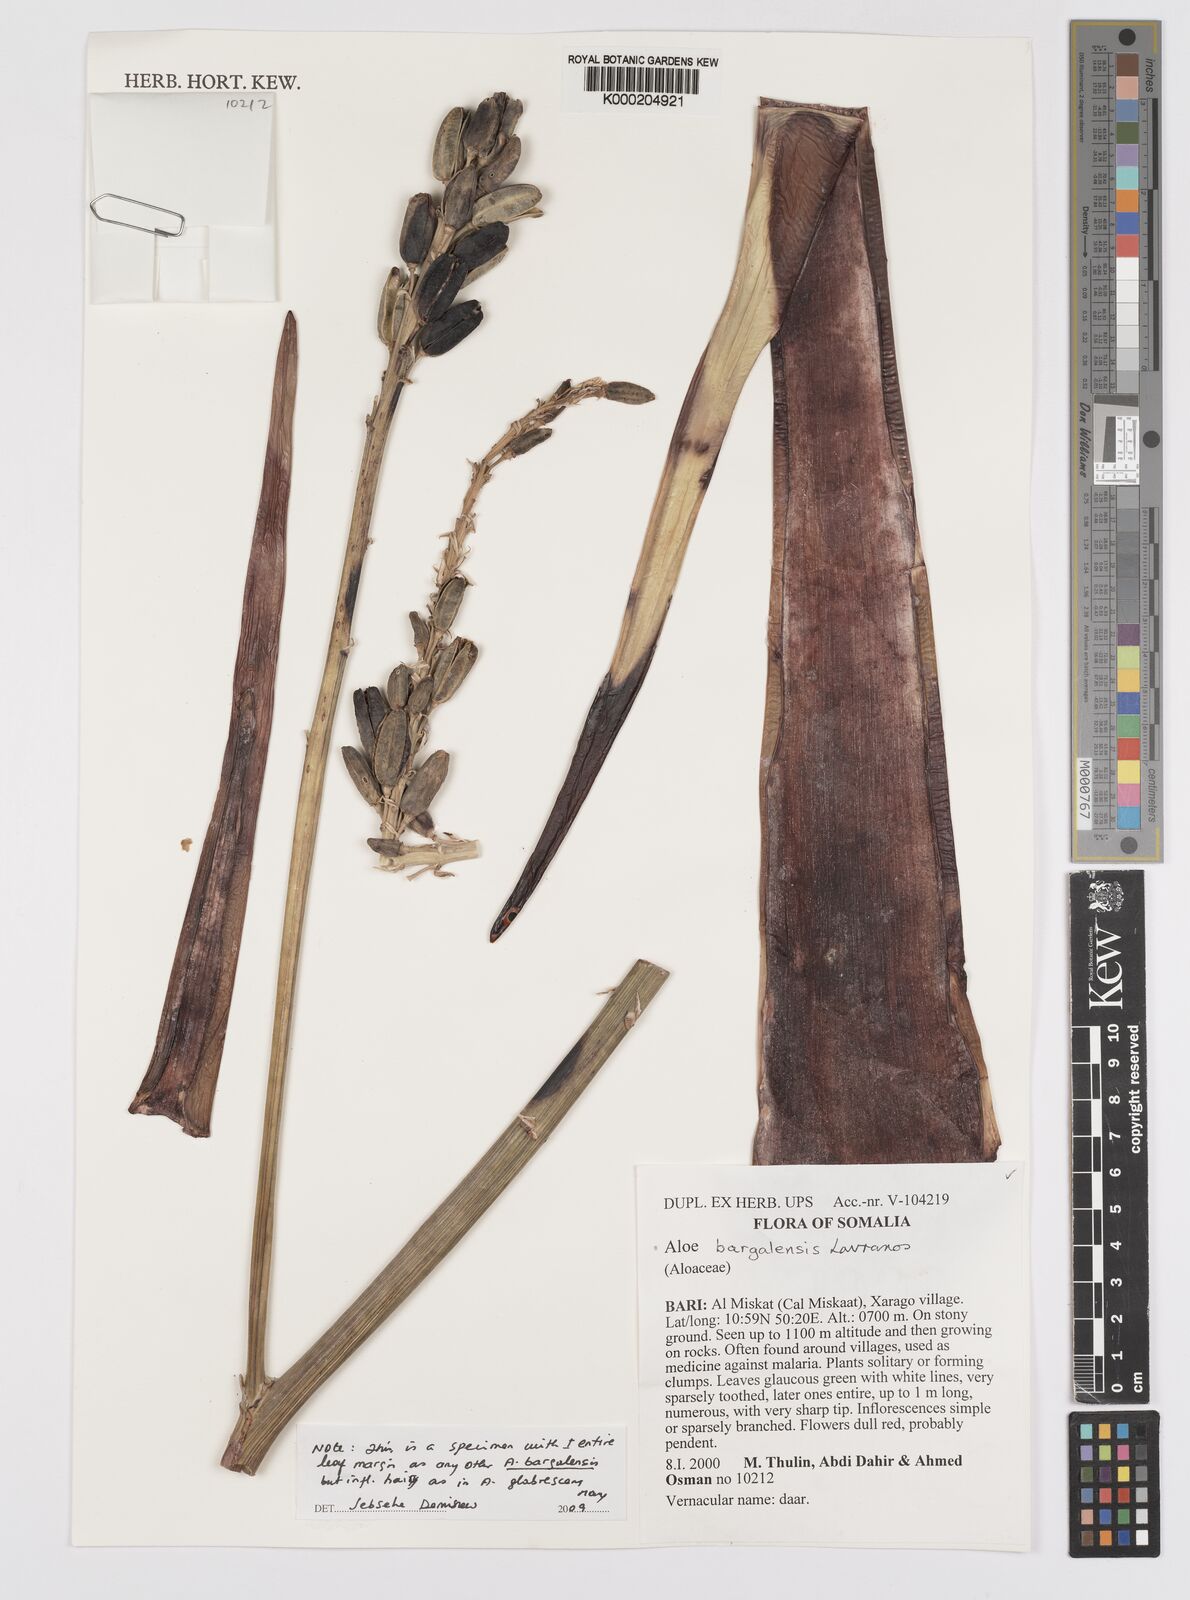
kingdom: Plantae
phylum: Tracheophyta
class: Liliopsida
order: Asparagales
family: Asphodelaceae
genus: Aloe
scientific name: Aloe bargalensis
